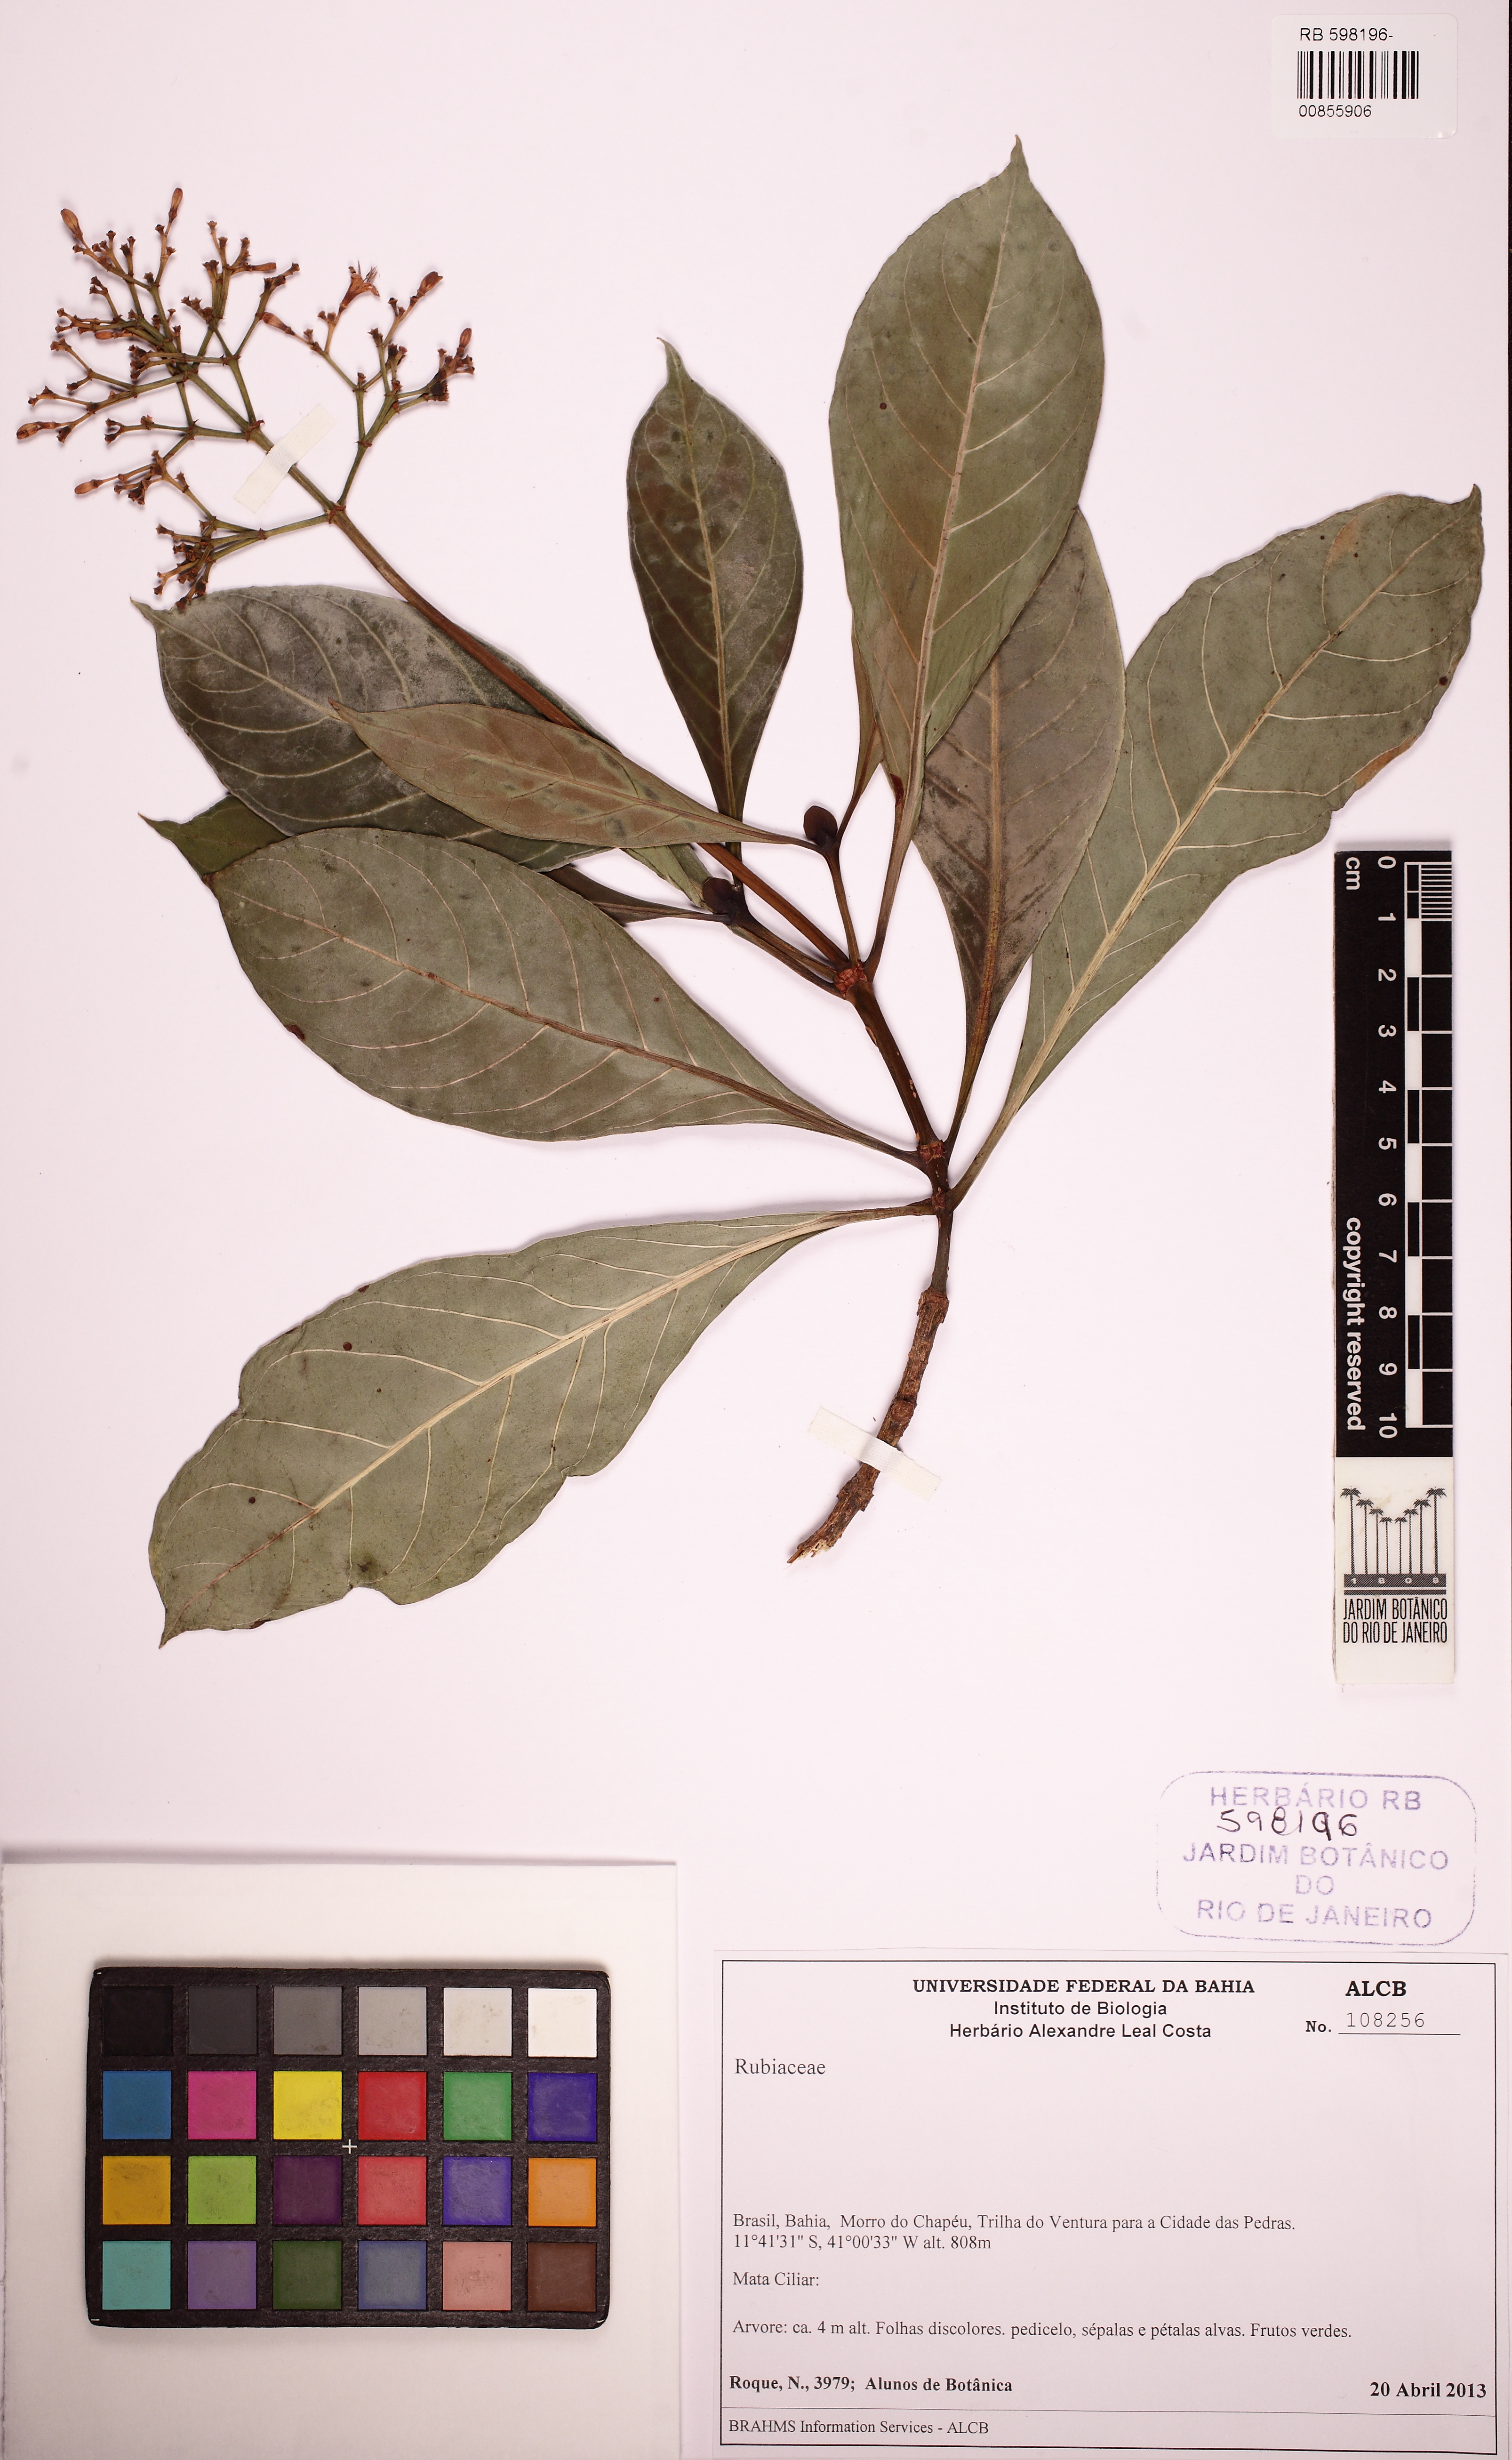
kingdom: Plantae
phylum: Tracheophyta
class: Magnoliopsida
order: Gentianales
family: Rubiaceae
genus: Psychotria
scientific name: Psychotria pedunculosa
